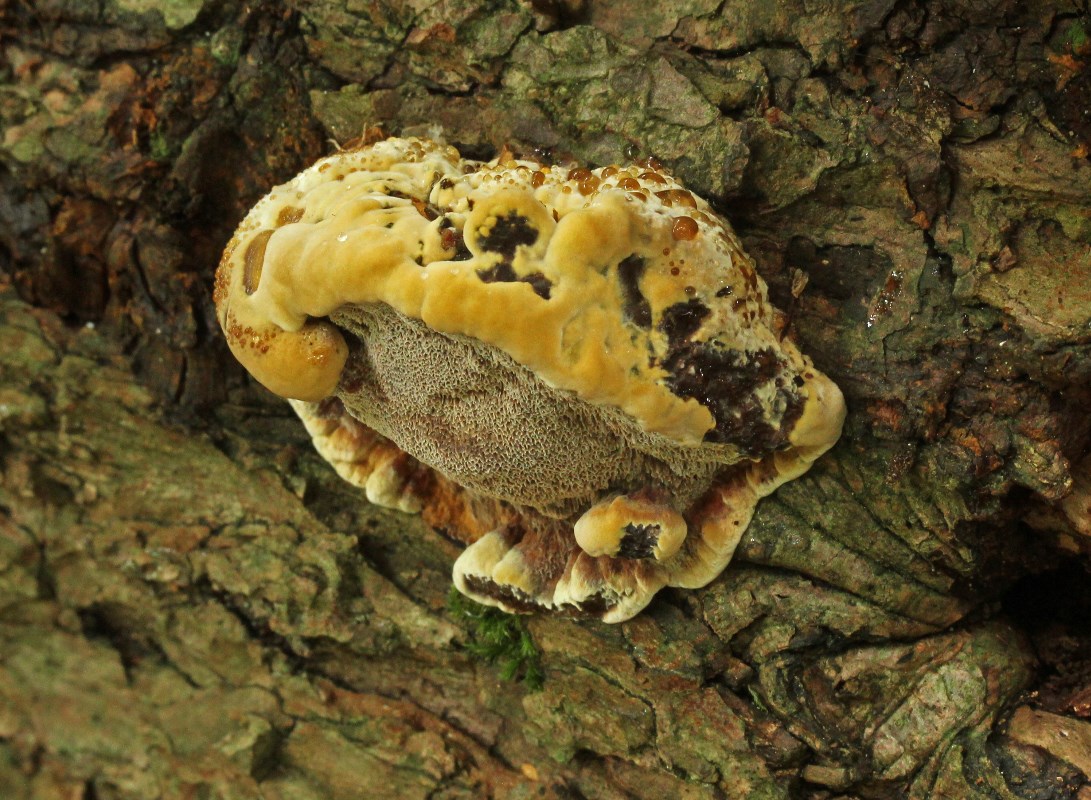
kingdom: Fungi
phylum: Basidiomycota
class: Agaricomycetes
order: Hymenochaetales
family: Hymenochaetaceae
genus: Xanthoporia
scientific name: Xanthoporia radiata
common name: elle-spejlporesvamp
